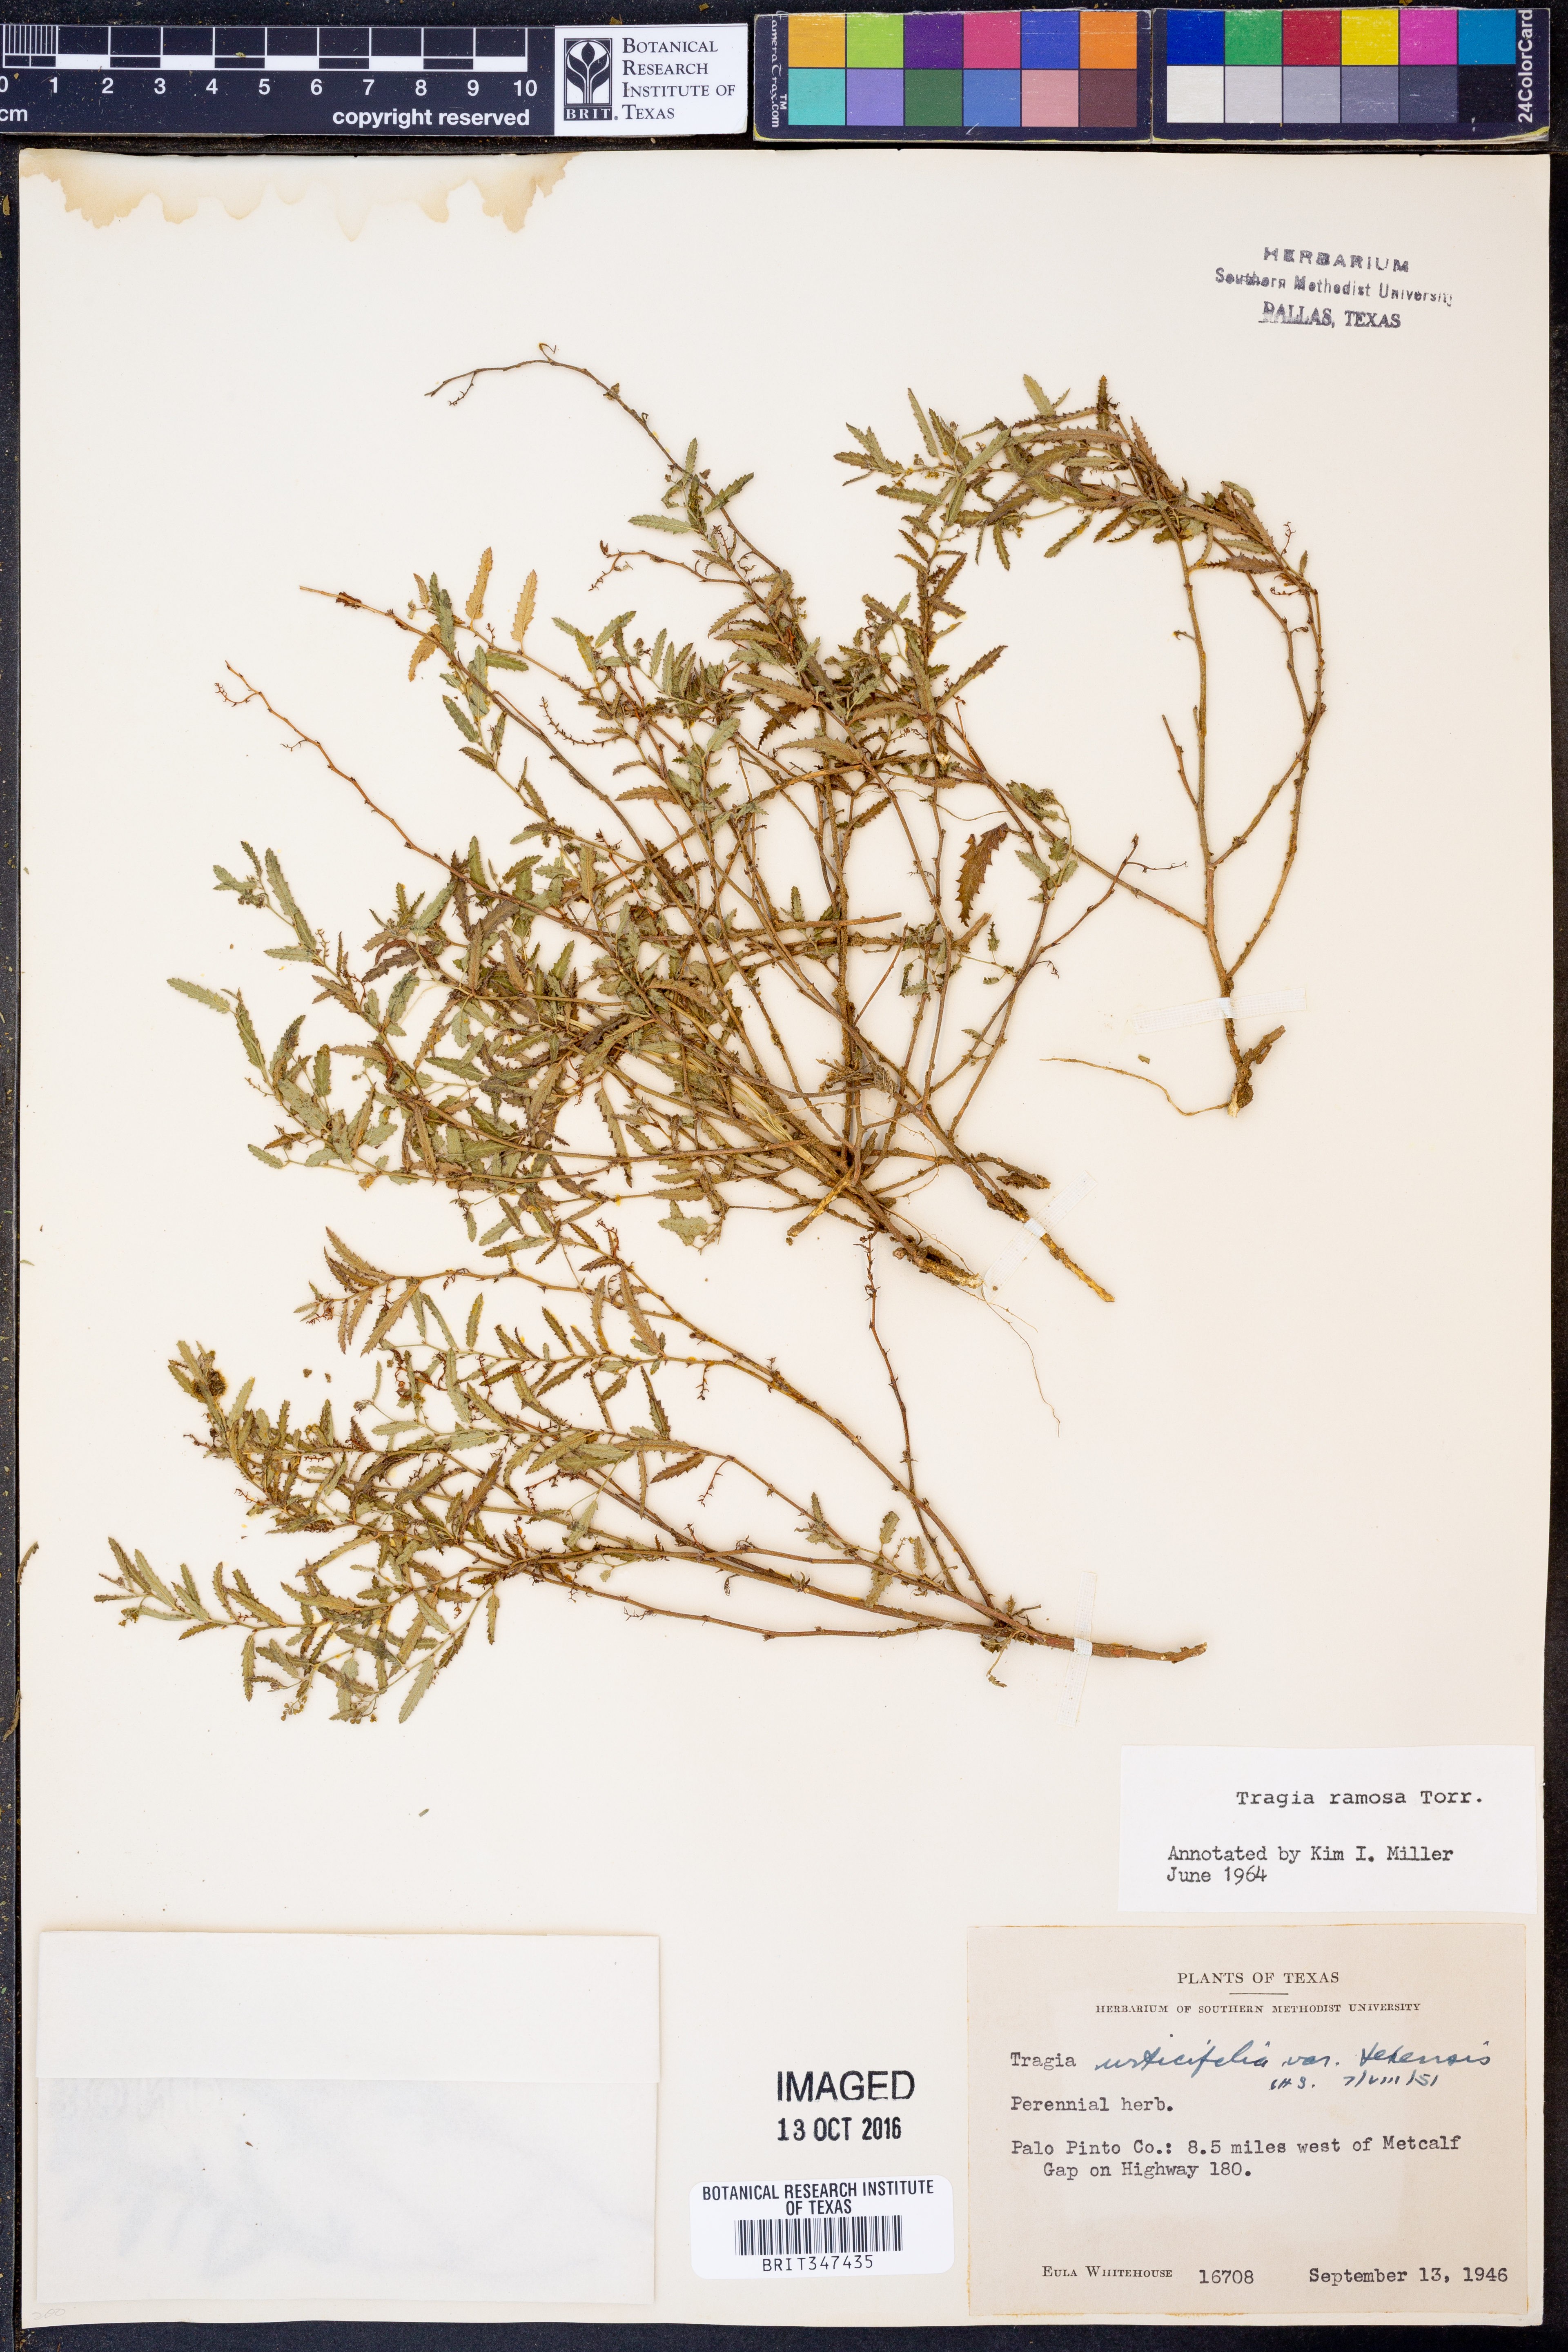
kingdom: Plantae
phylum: Tracheophyta
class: Magnoliopsida
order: Malpighiales
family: Euphorbiaceae
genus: Tragia
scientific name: Tragia ramosa
